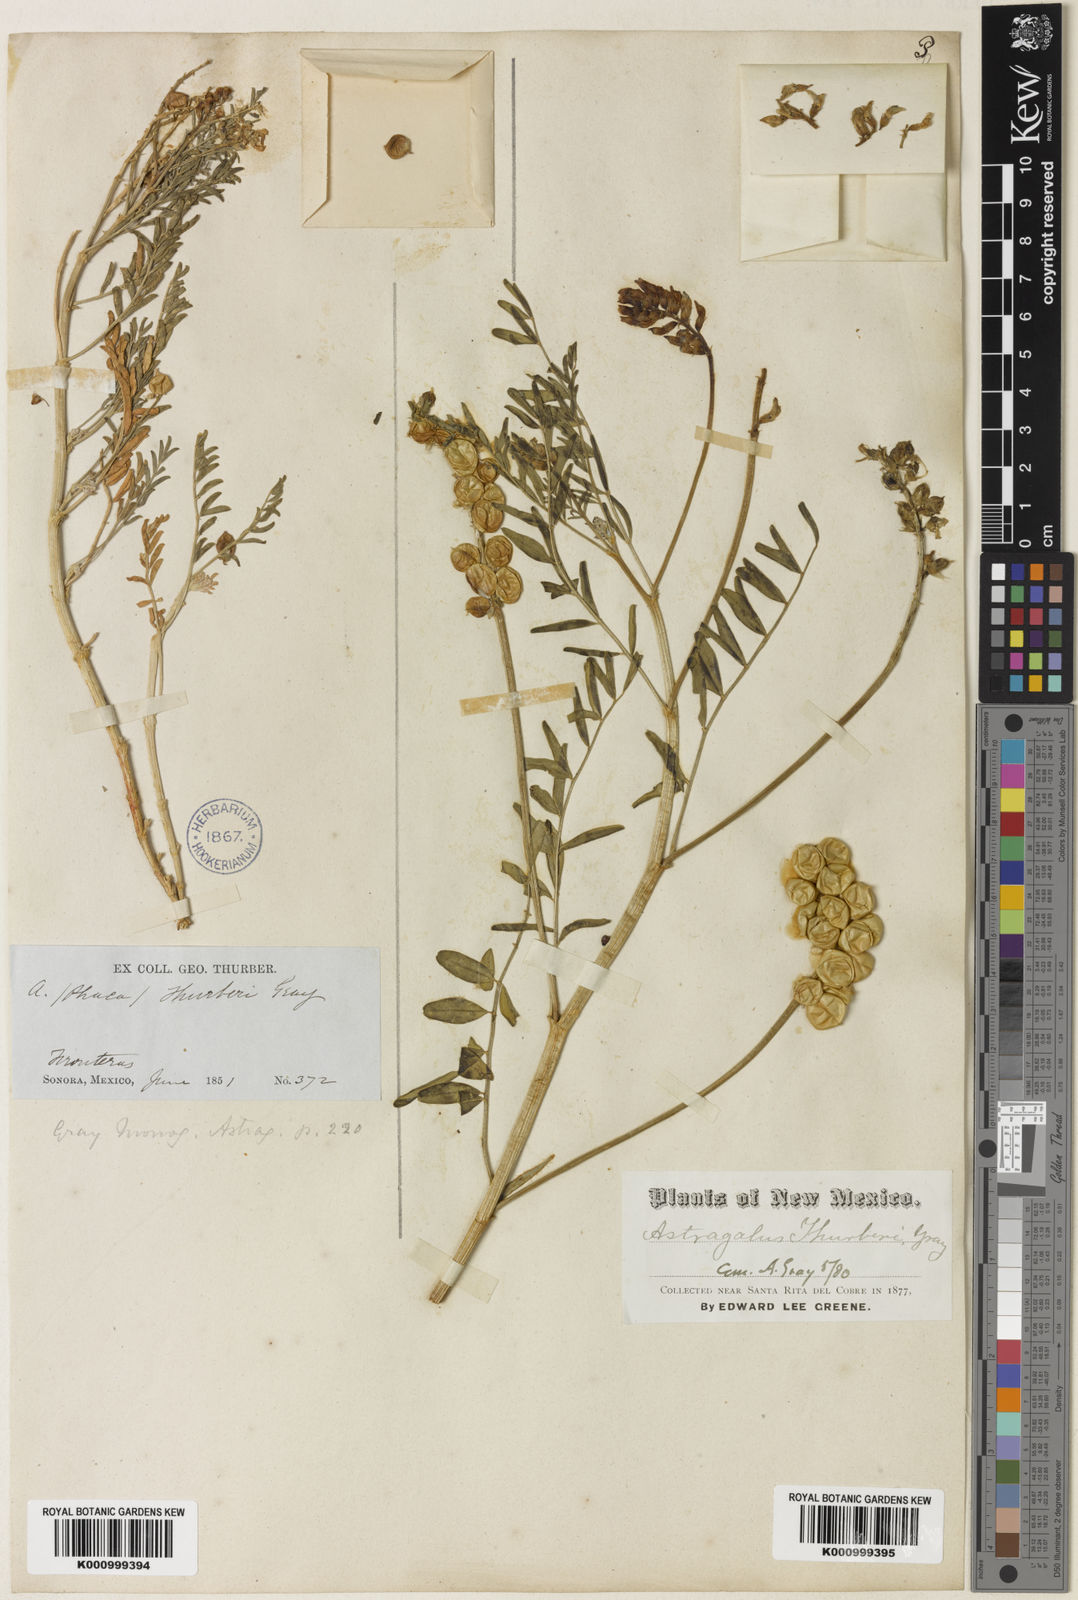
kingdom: Plantae
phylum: Tracheophyta
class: Magnoliopsida
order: Fabales
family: Fabaceae
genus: Astragalus
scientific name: Astragalus thurberi
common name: Thurber's milk-vetch
